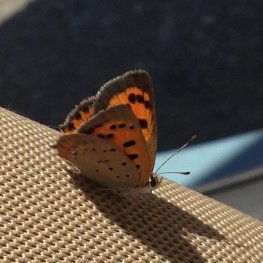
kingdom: Animalia
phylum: Arthropoda
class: Insecta
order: Lepidoptera
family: Lycaenidae
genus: Lycaena
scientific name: Lycaena phlaeas
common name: American Copper
